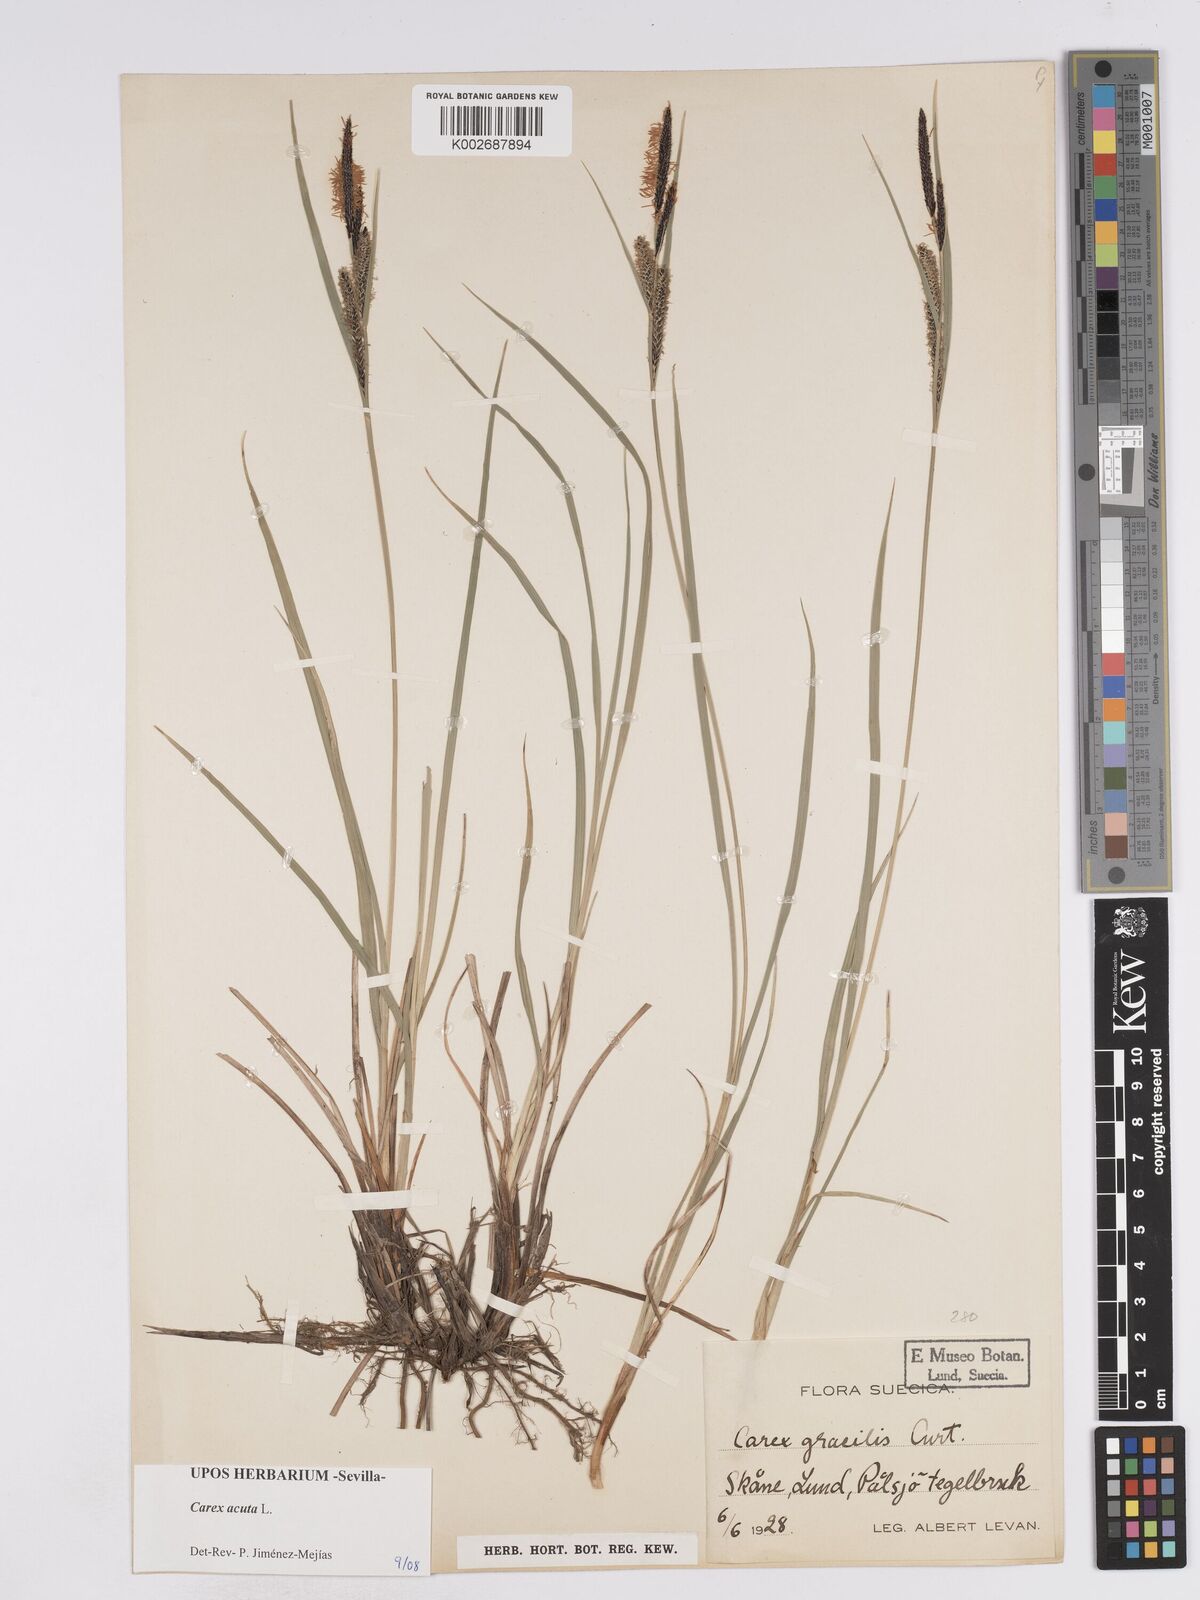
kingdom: Plantae
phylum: Tracheophyta
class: Liliopsida
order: Poales
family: Cyperaceae
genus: Carex
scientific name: Carex acuta
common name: Slender tufted-sedge
